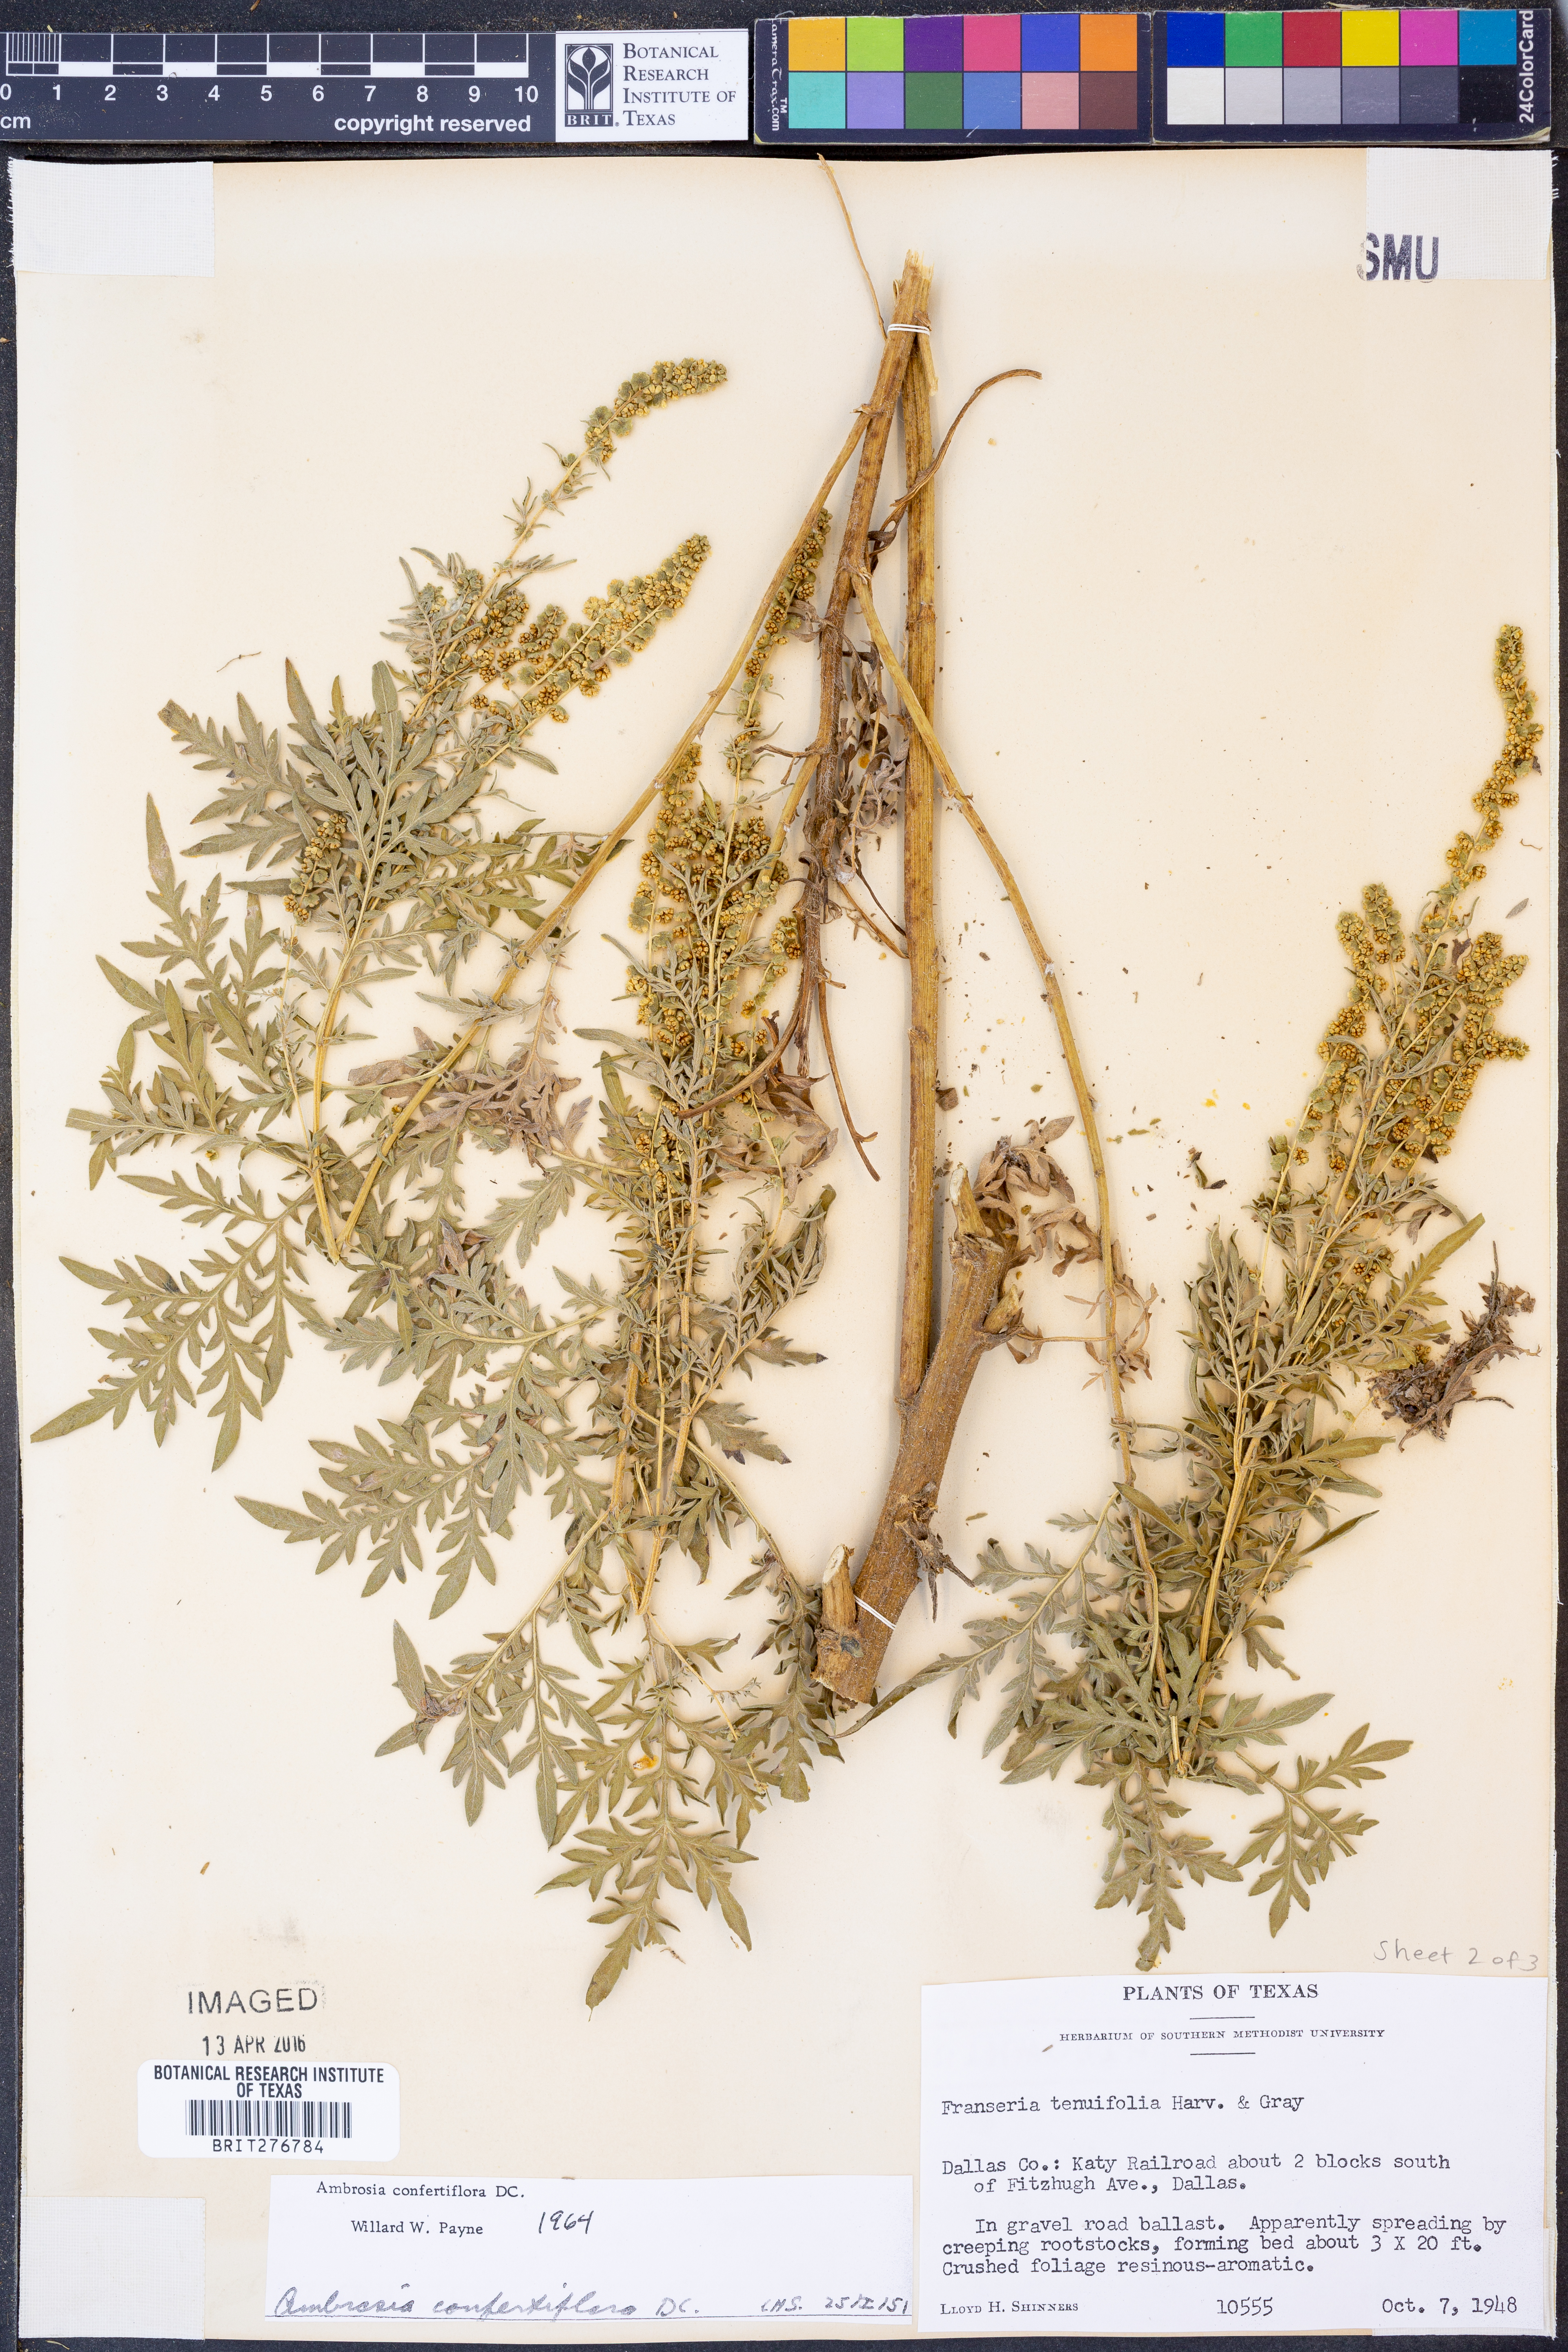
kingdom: Plantae
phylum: Tracheophyta
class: Magnoliopsida
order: Asterales
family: Asteraceae
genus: Ambrosia
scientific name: Ambrosia confertiflora
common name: Bur ragweed
